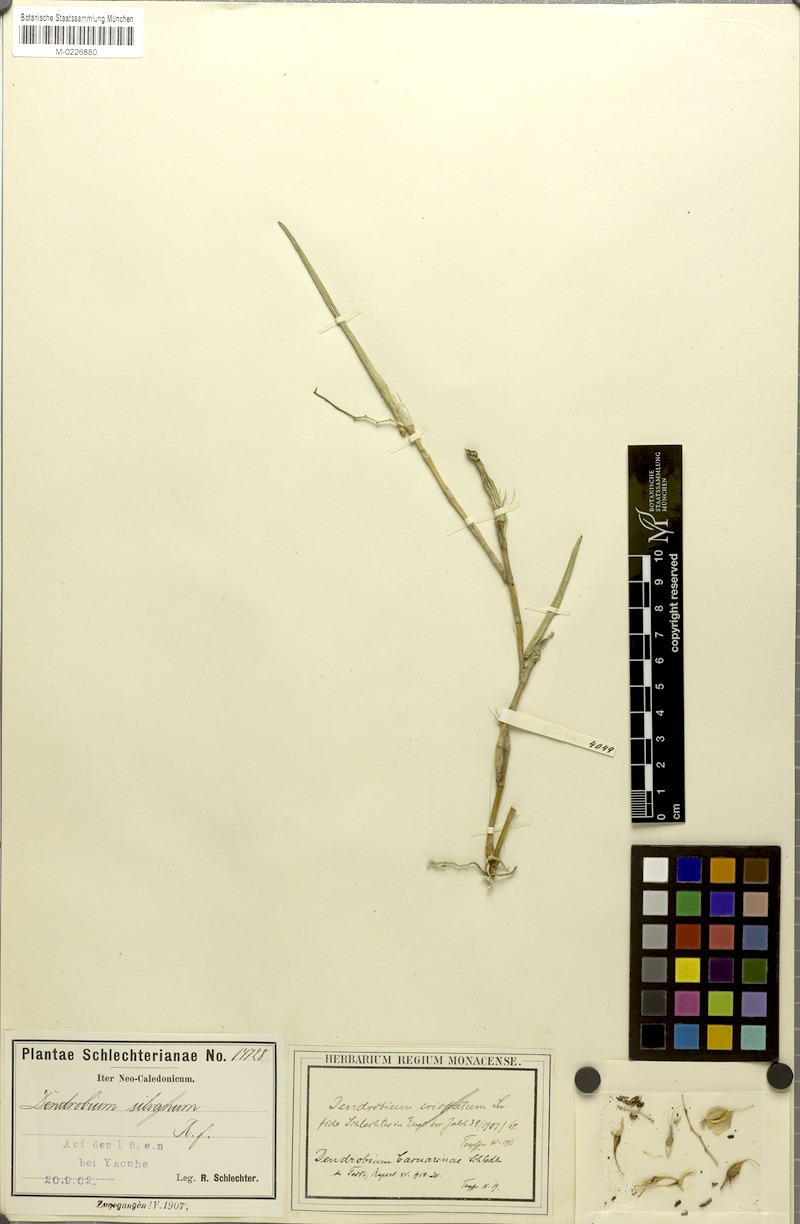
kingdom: Plantae
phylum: Tracheophyta
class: Liliopsida
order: Asparagales
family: Orchidaceae
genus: Dendrobium
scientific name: Dendrobium casuarinae
